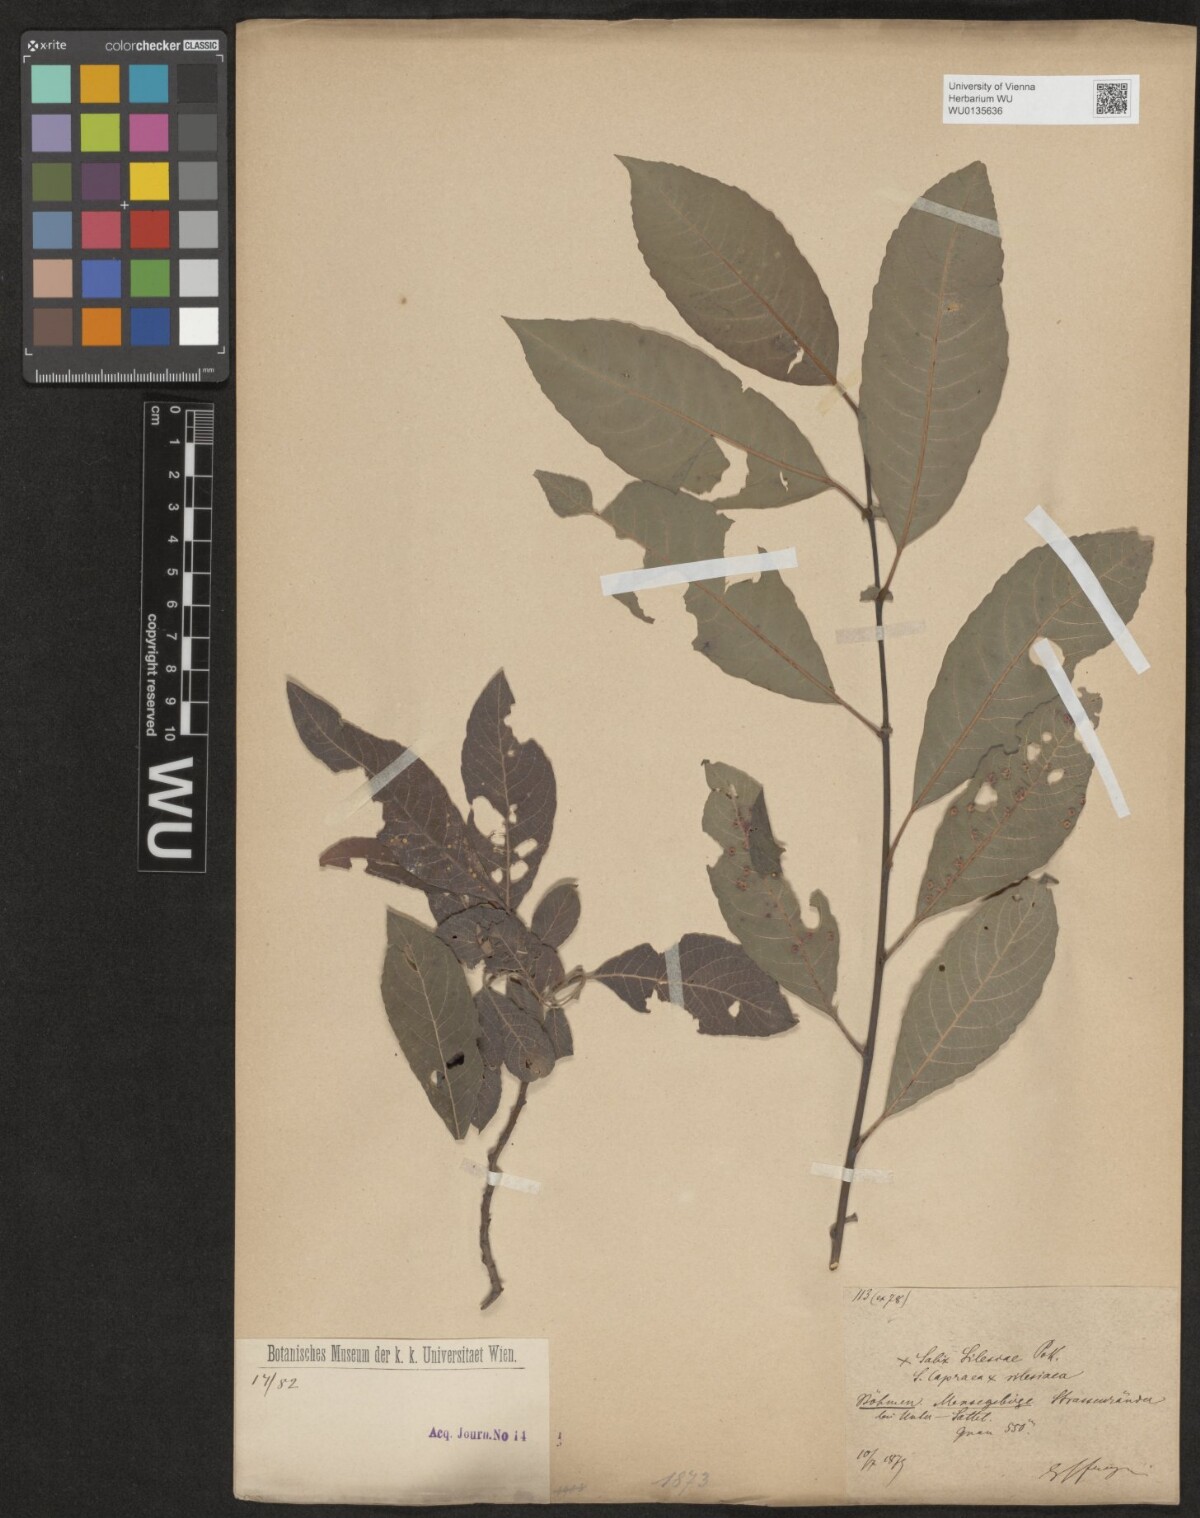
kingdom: Plantae
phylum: Tracheophyta
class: Magnoliopsida
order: Malpighiales
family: Salicaceae
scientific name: Salicaceae
